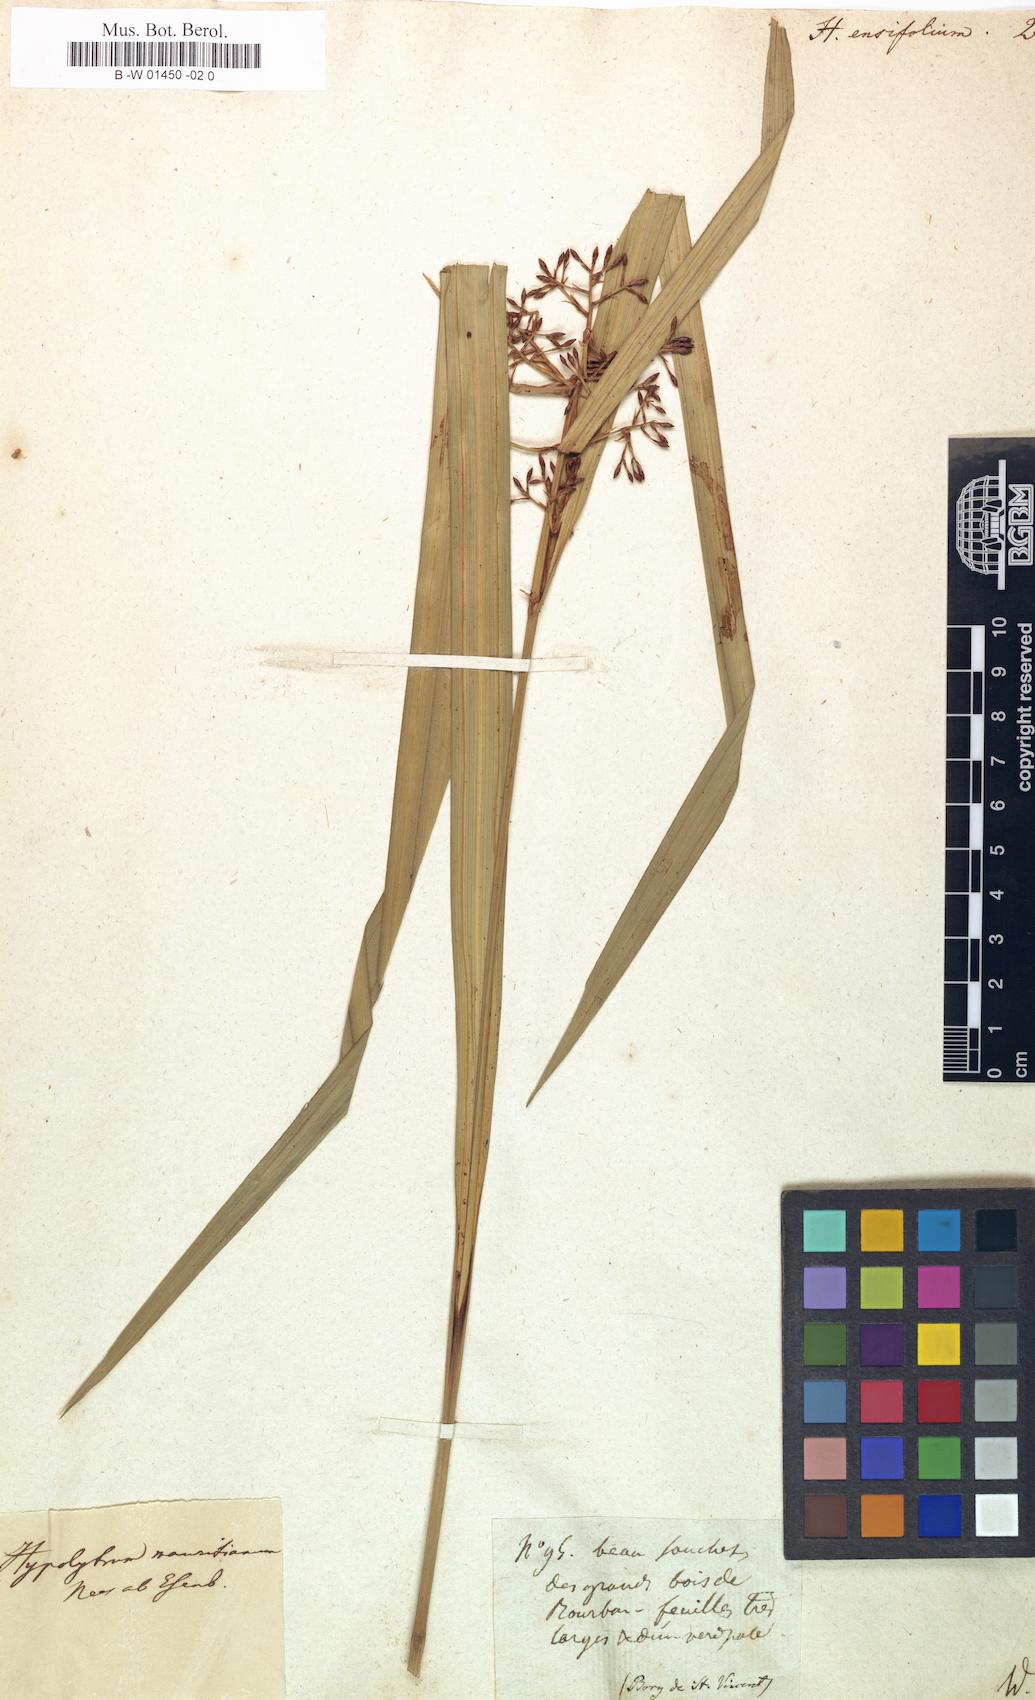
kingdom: Plantae
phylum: Tracheophyta
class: Liliopsida
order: Poales
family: Cyperaceae
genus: Cyperus
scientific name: Cyperus
